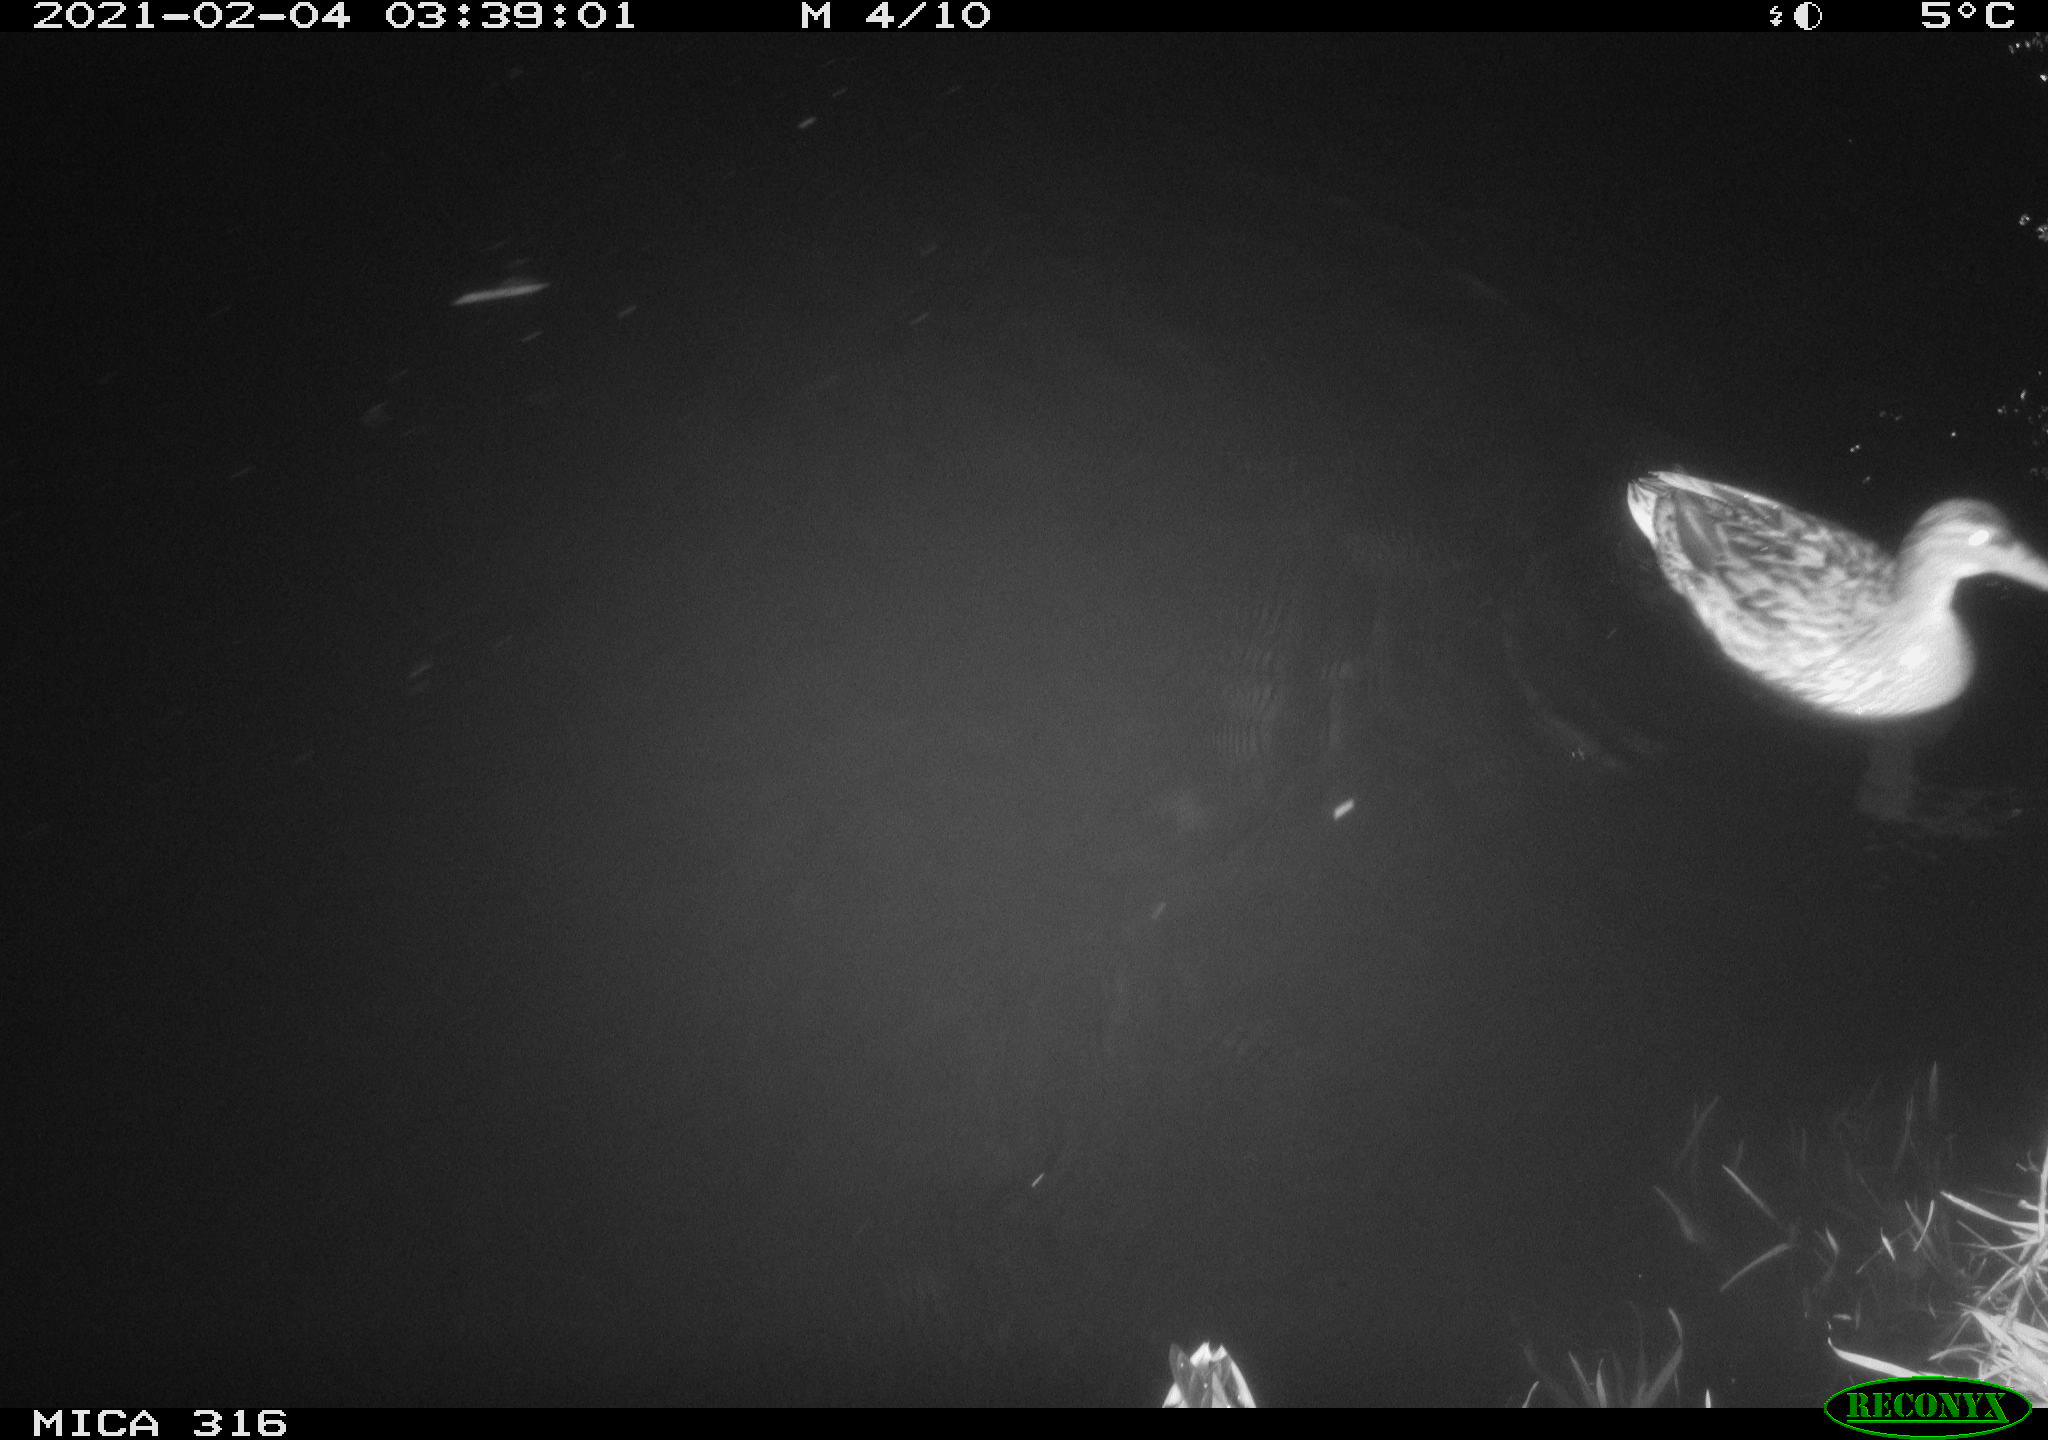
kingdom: Animalia
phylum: Chordata
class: Aves
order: Anseriformes
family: Anatidae
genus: Mareca
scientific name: Mareca strepera
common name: Gadwall
